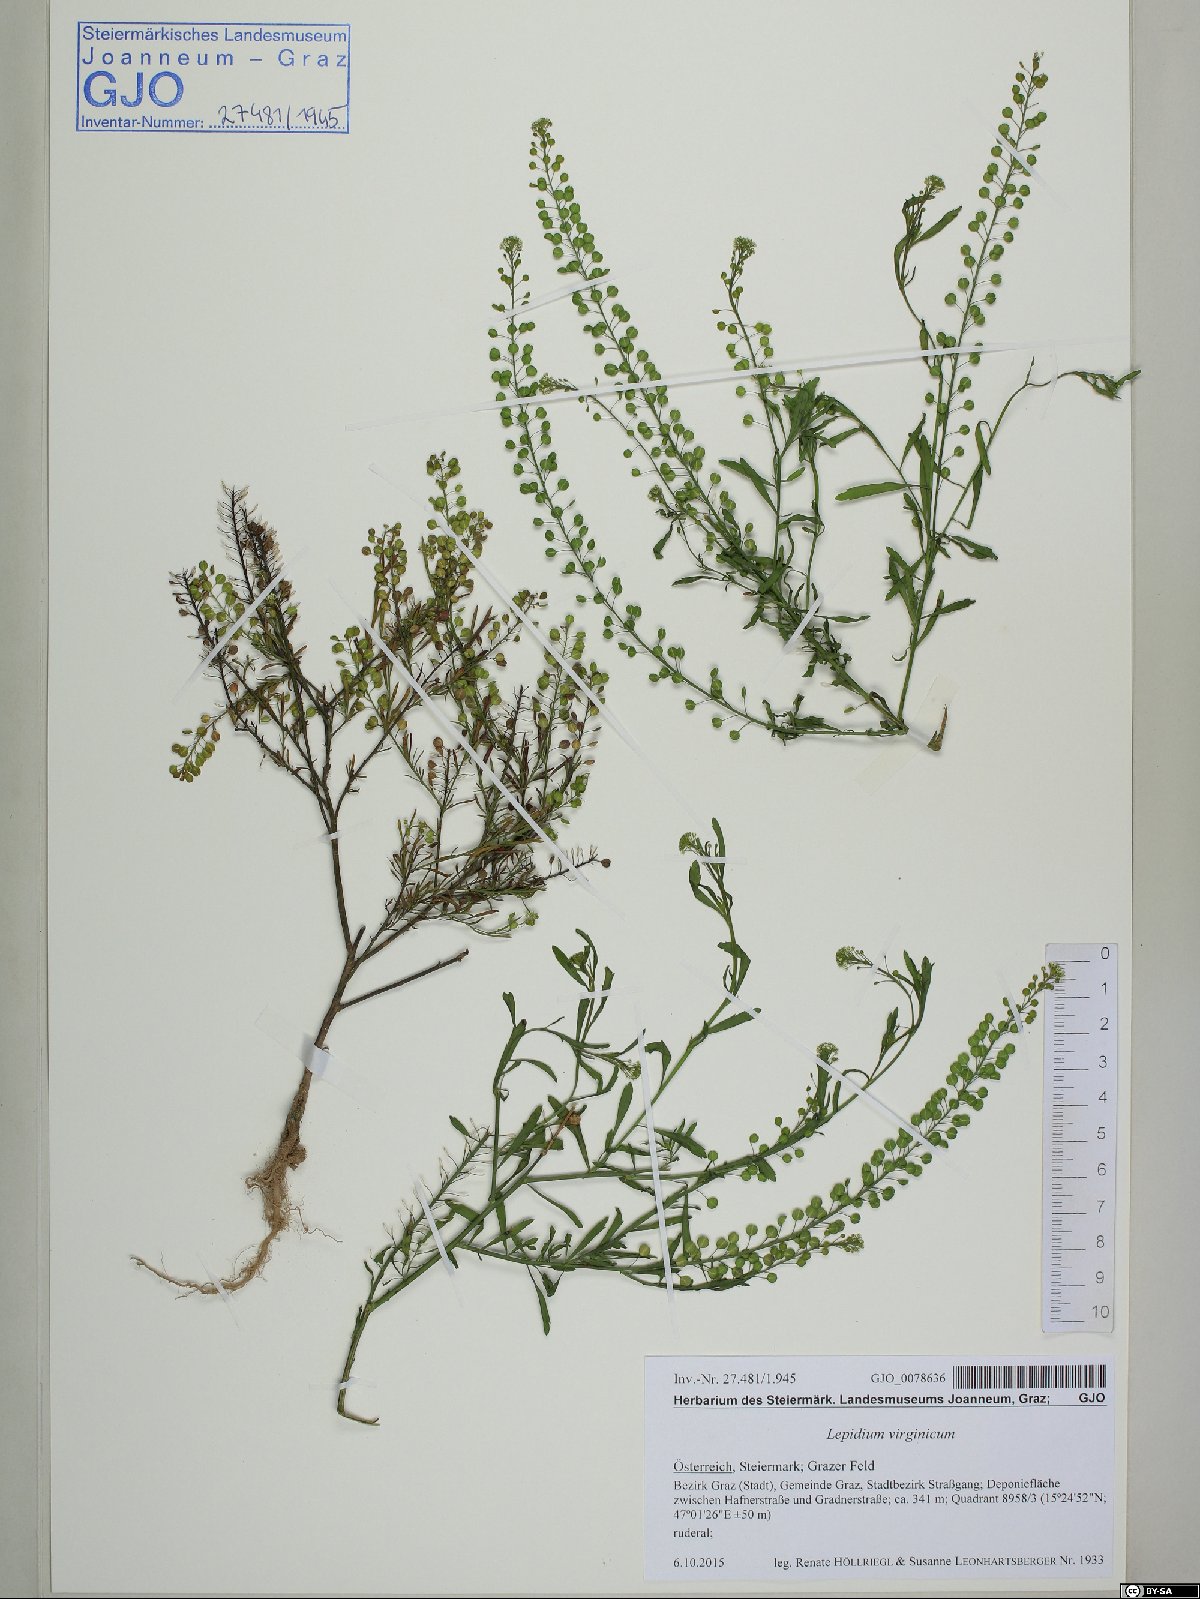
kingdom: Plantae
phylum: Tracheophyta
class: Magnoliopsida
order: Brassicales
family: Brassicaceae
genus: Lepidium
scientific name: Lepidium virginicum
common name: Least pepperwort
